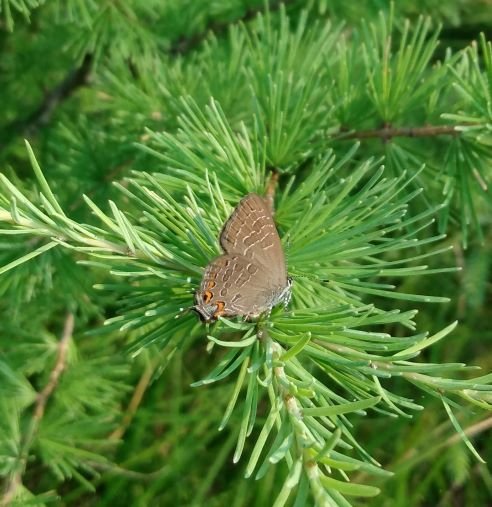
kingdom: Animalia
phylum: Arthropoda
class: Insecta
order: Lepidoptera
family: Lycaenidae
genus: Satyrium
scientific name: Satyrium liparops
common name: Striped Hairstreak
